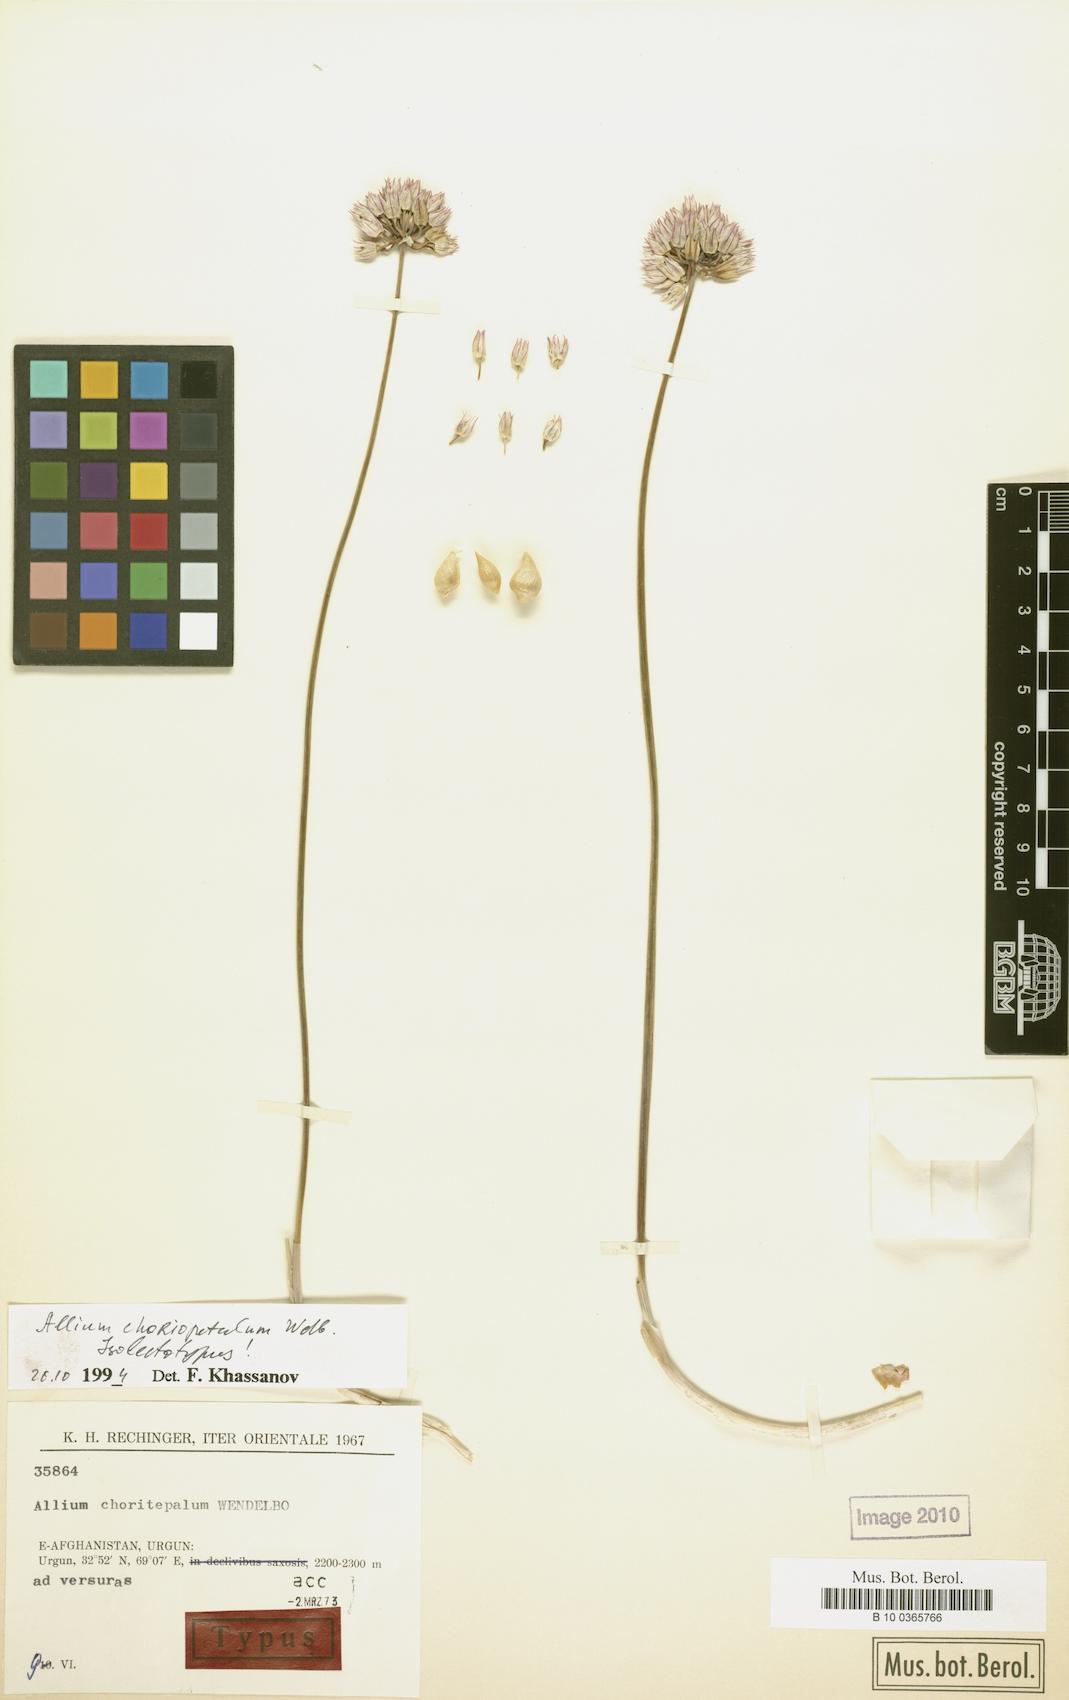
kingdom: Plantae
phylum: Tracheophyta
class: Liliopsida
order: Asparagales
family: Amaryllidaceae
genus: Allium
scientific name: Allium choriotepalum
